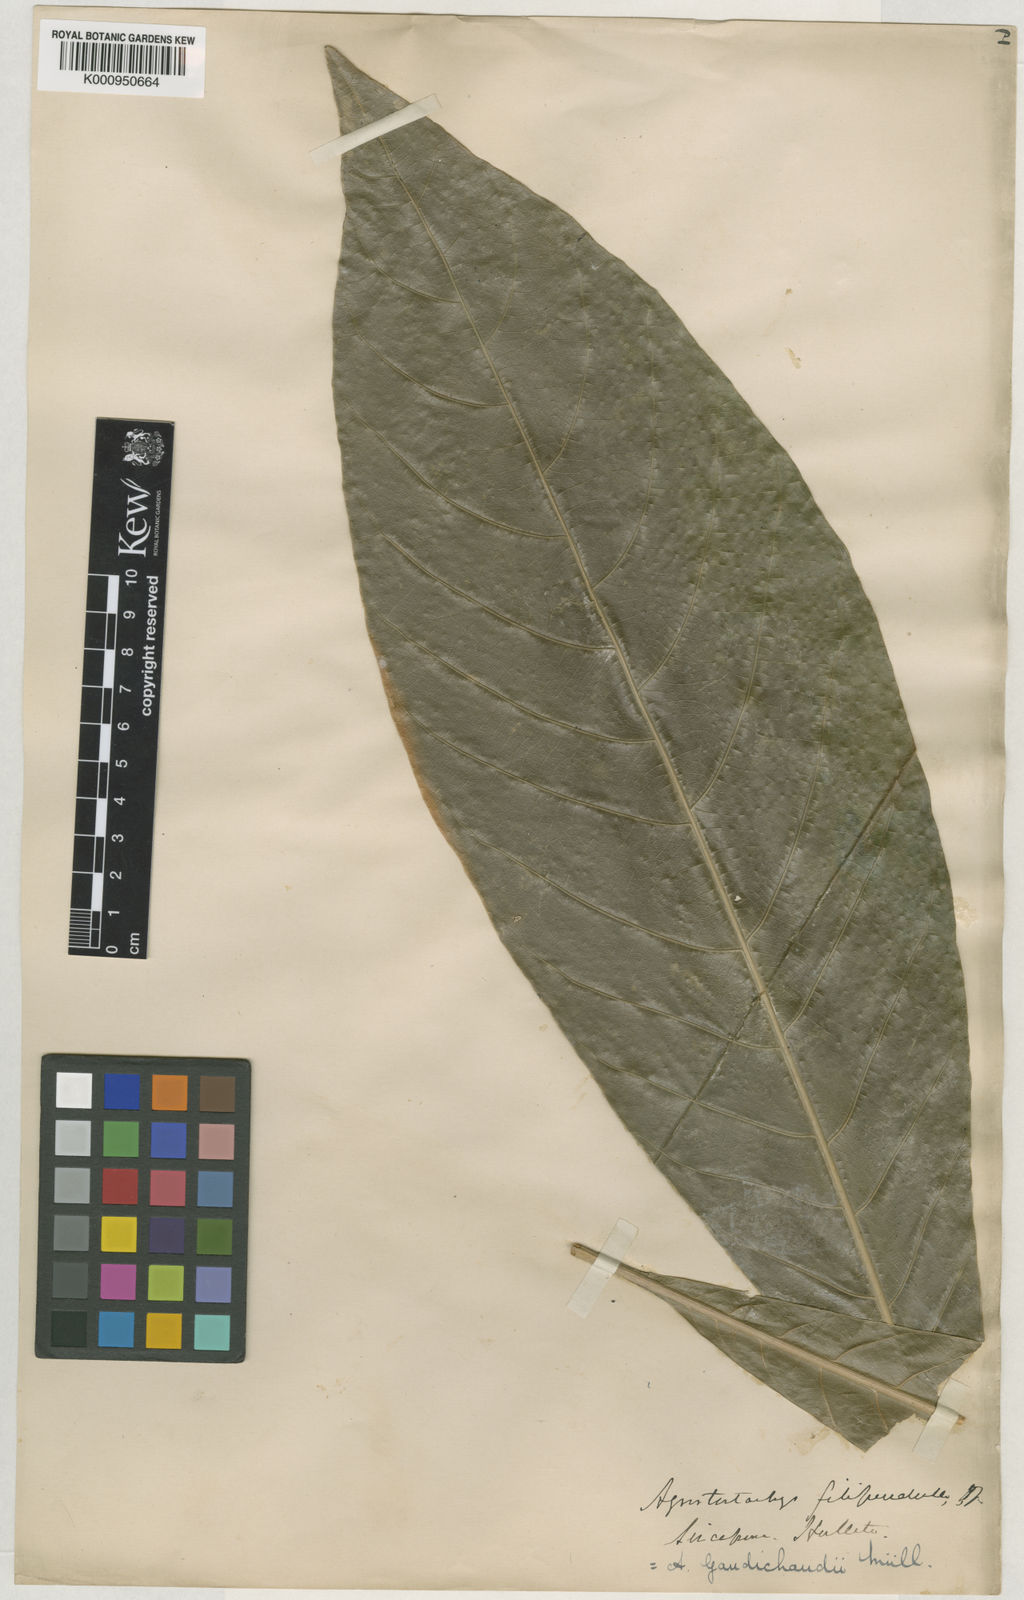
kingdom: Plantae
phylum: Tracheophyta
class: Magnoliopsida
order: Malpighiales
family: Euphorbiaceae
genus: Agrostistachys
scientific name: Agrostistachys gaudichaudii
